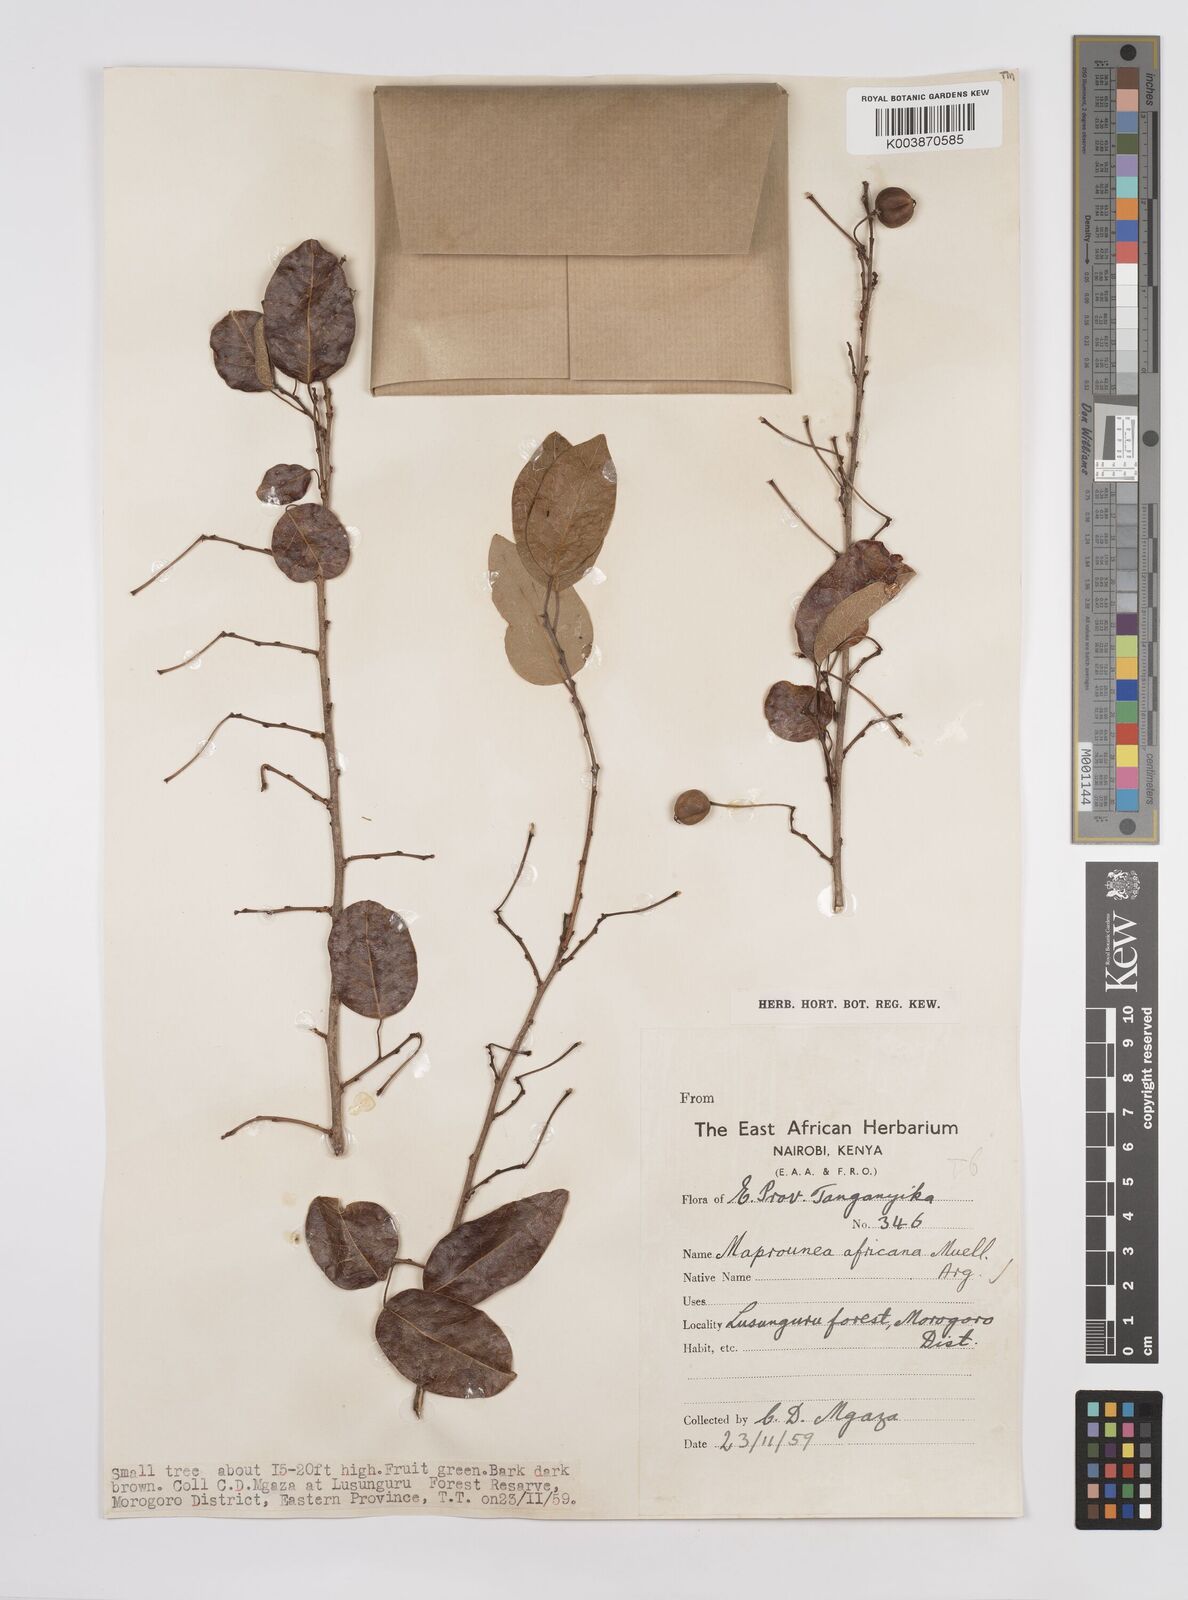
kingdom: Plantae
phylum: Tracheophyta
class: Magnoliopsida
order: Malpighiales
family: Euphorbiaceae
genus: Maprounea
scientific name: Maprounea africana
